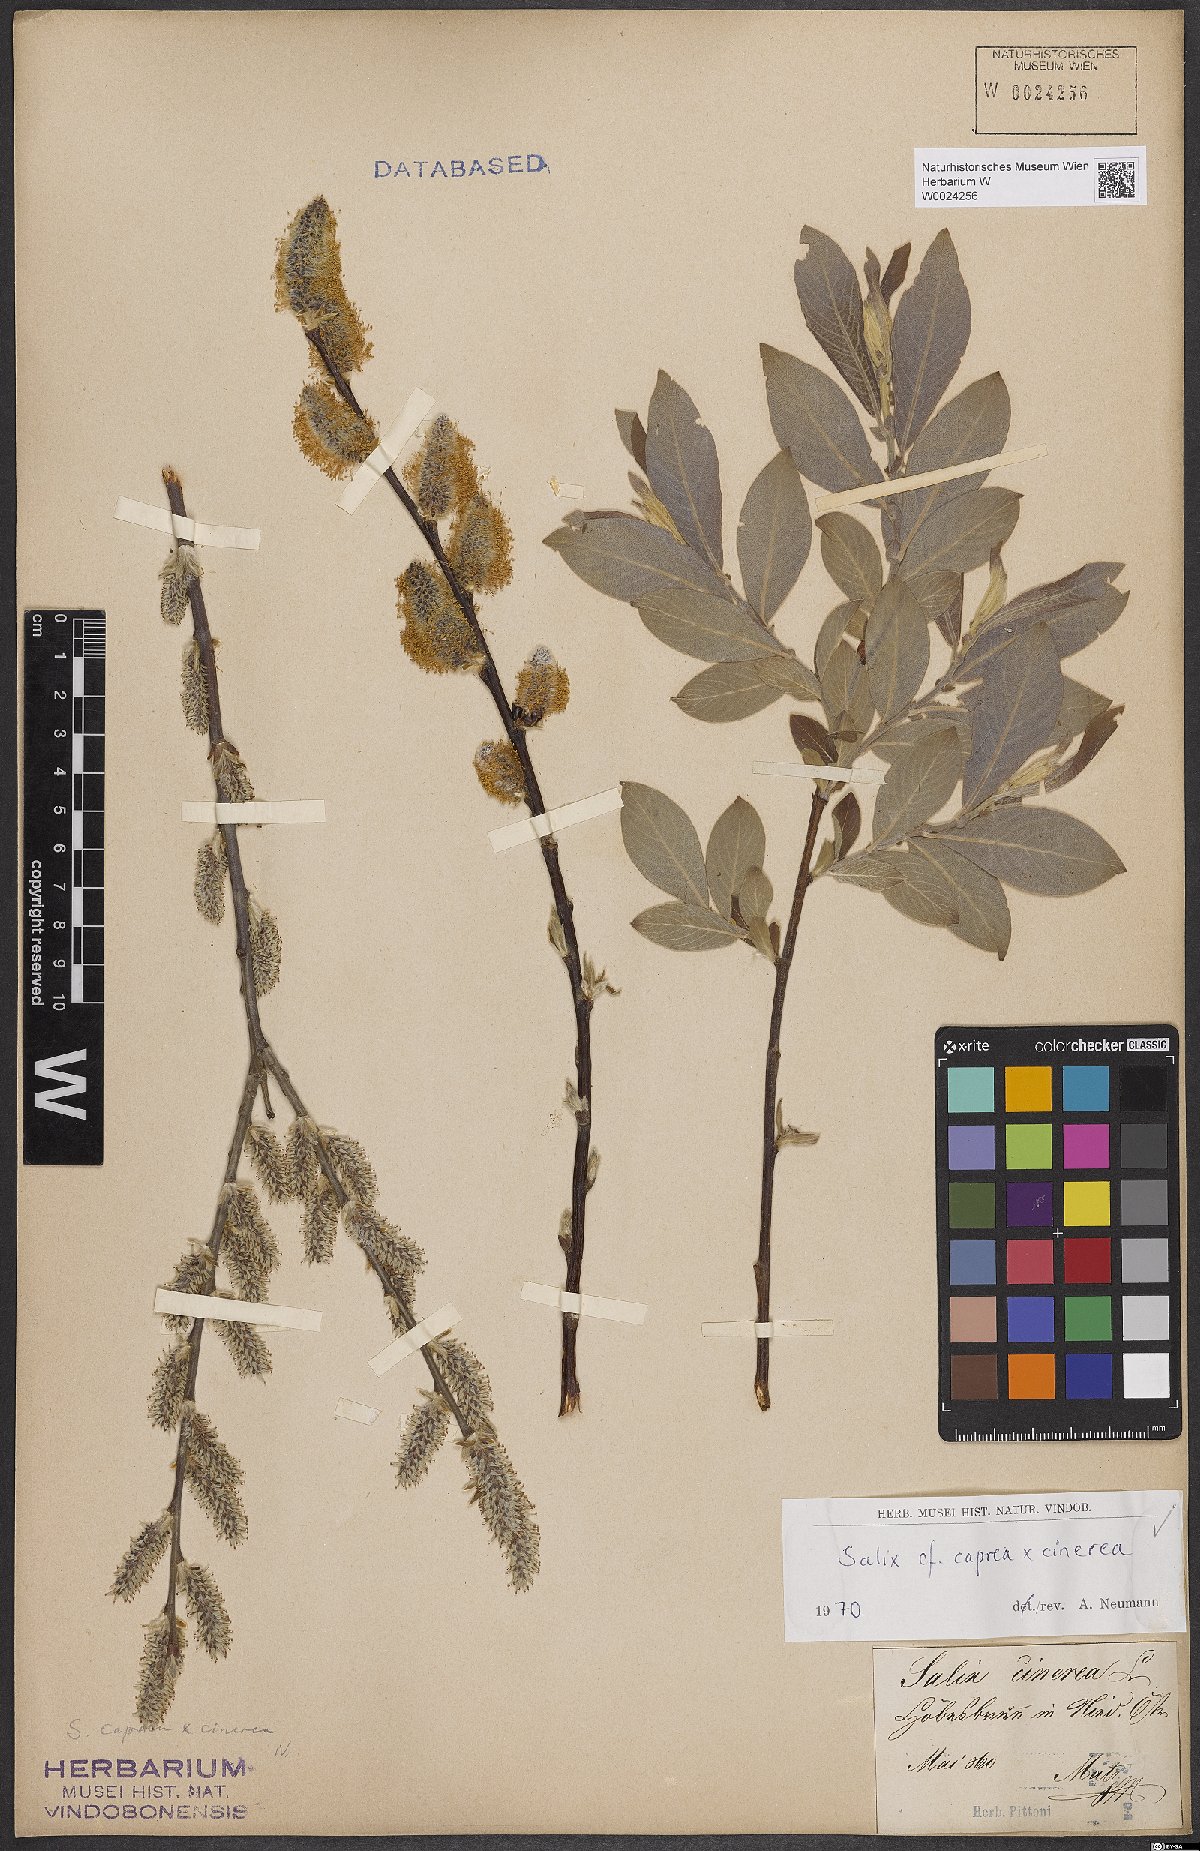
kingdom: Plantae
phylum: Tracheophyta
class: Magnoliopsida
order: Malpighiales
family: Salicaceae
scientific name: Salicaceae
